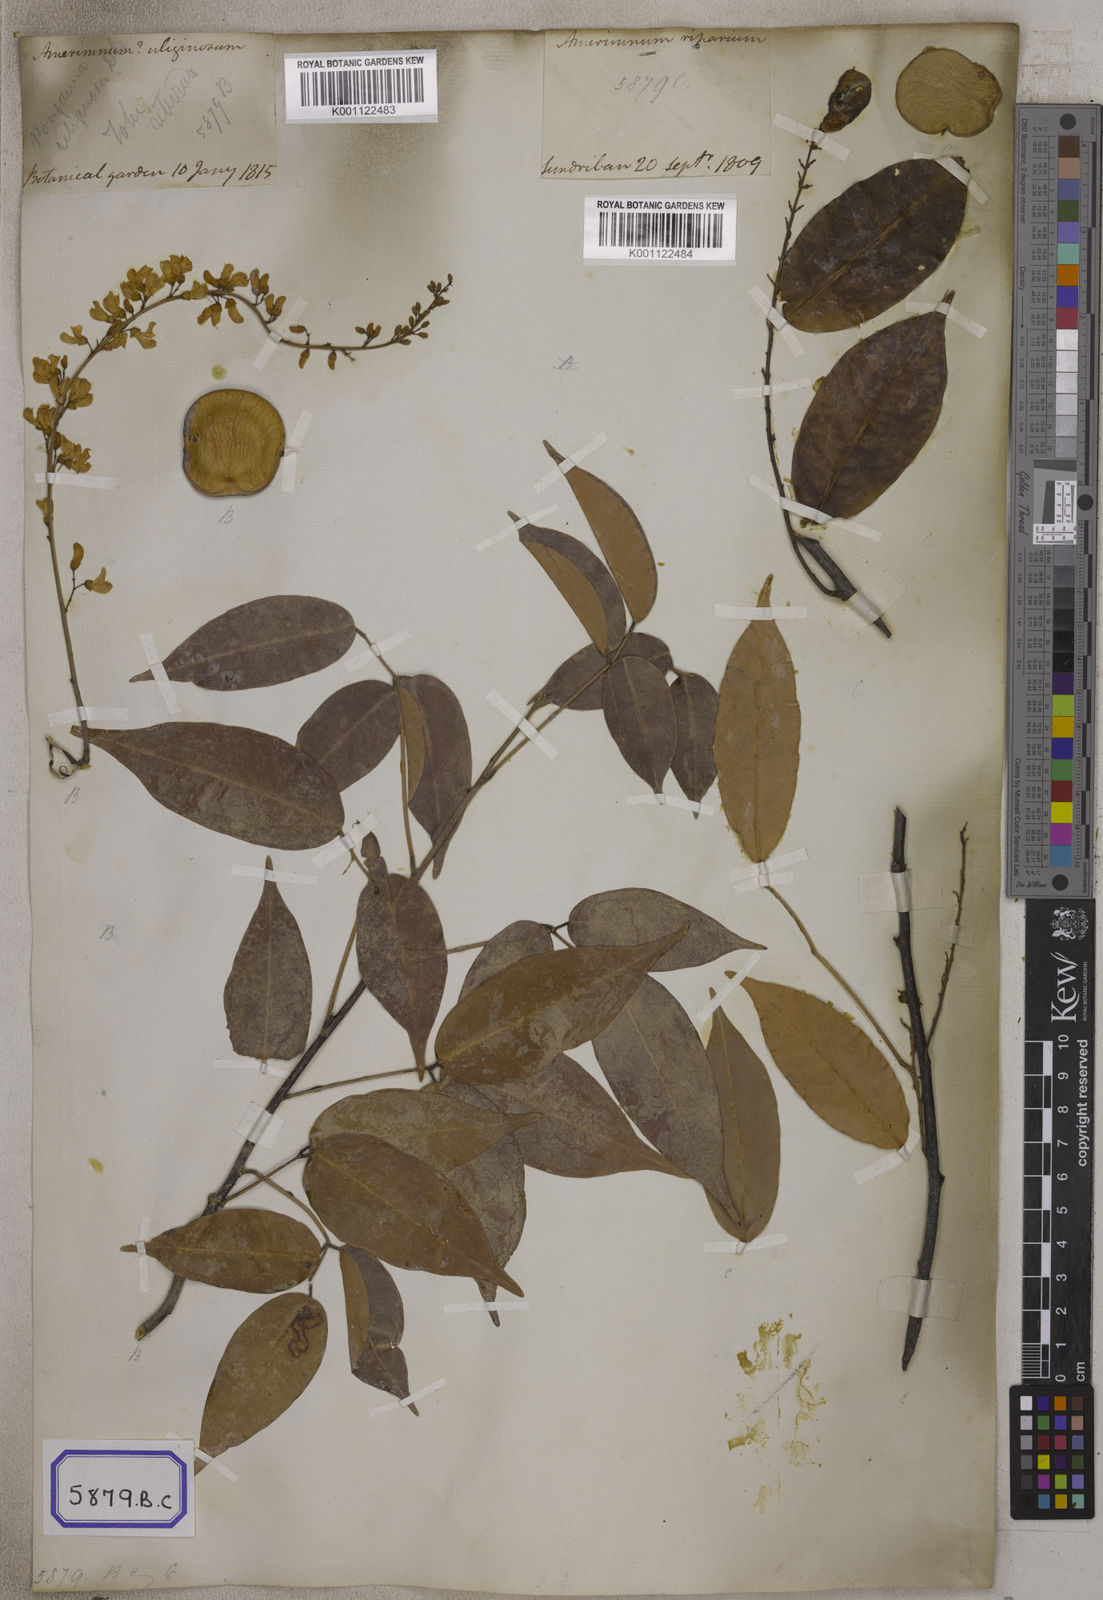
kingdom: Plantae
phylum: Tracheophyta
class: Magnoliopsida
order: Fabales
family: Fabaceae
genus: Derris
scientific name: Derris trifoliata
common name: Three-leaf derris
